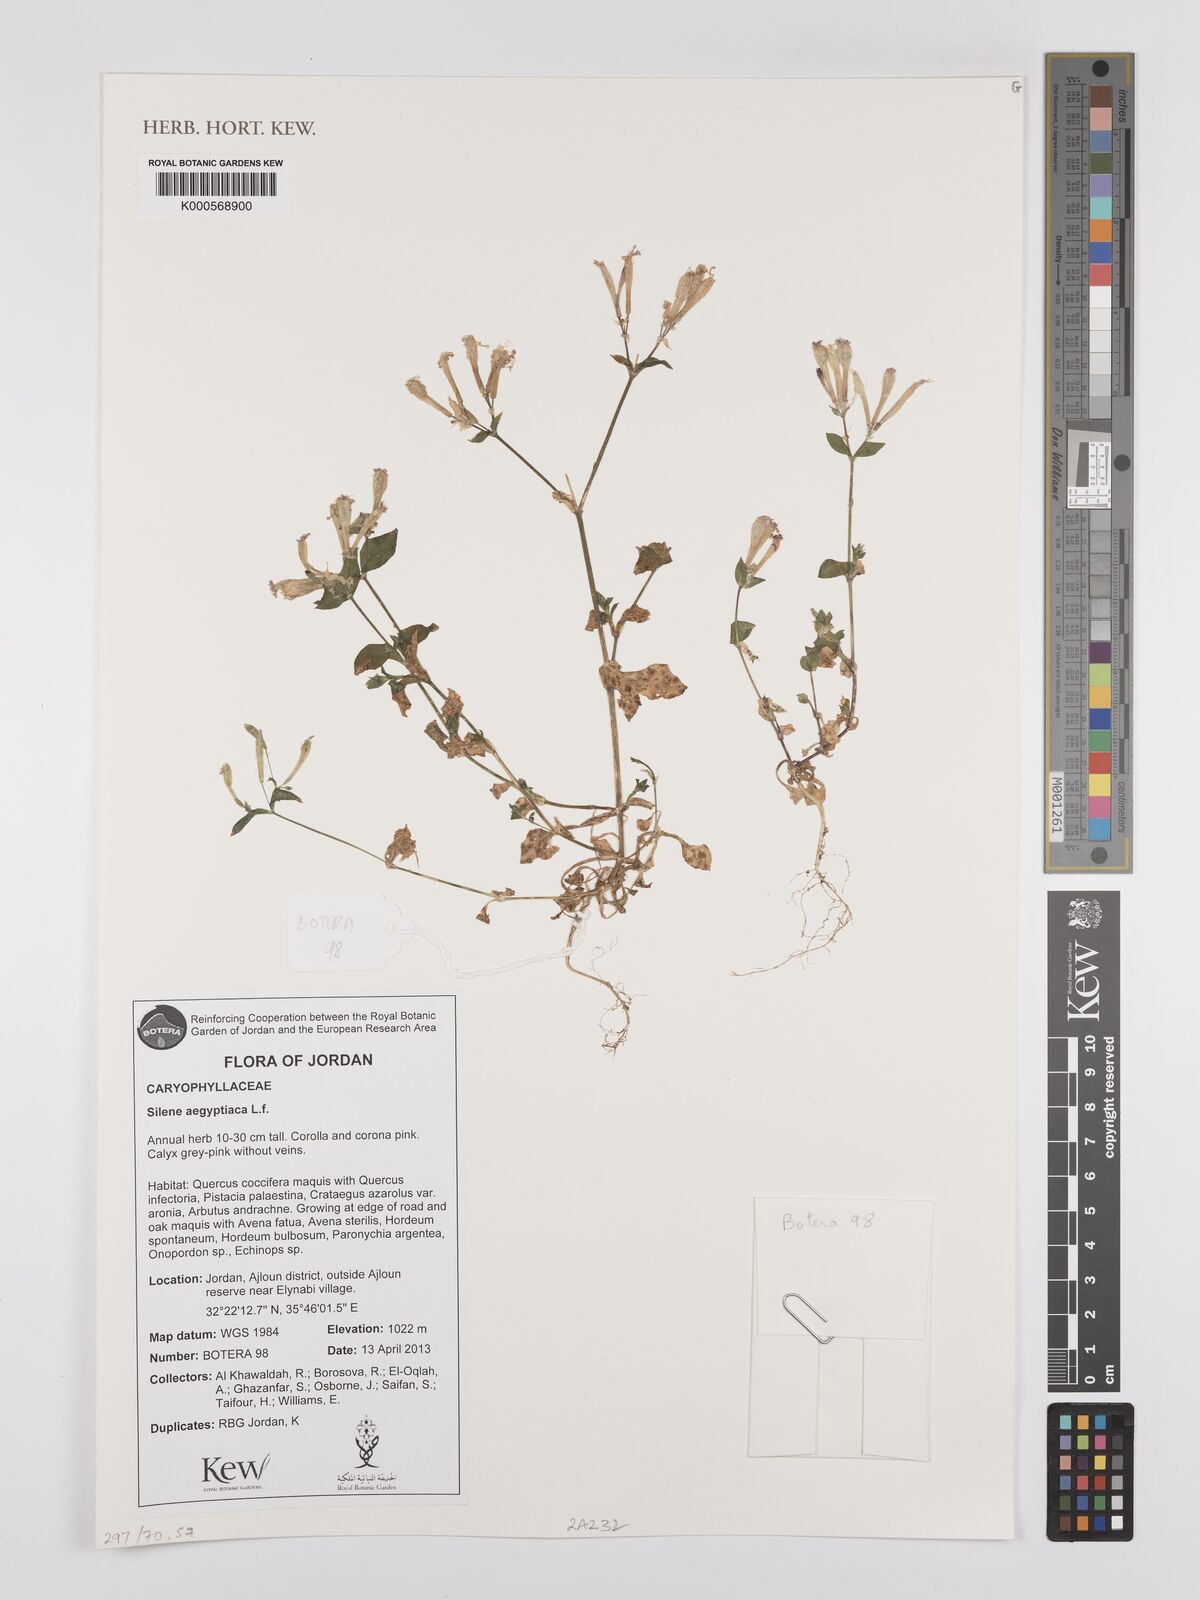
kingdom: Plantae
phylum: Tracheophyta
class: Magnoliopsida
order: Caryophyllales
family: Caryophyllaceae
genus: Silene
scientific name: Silene aegyptiaca
